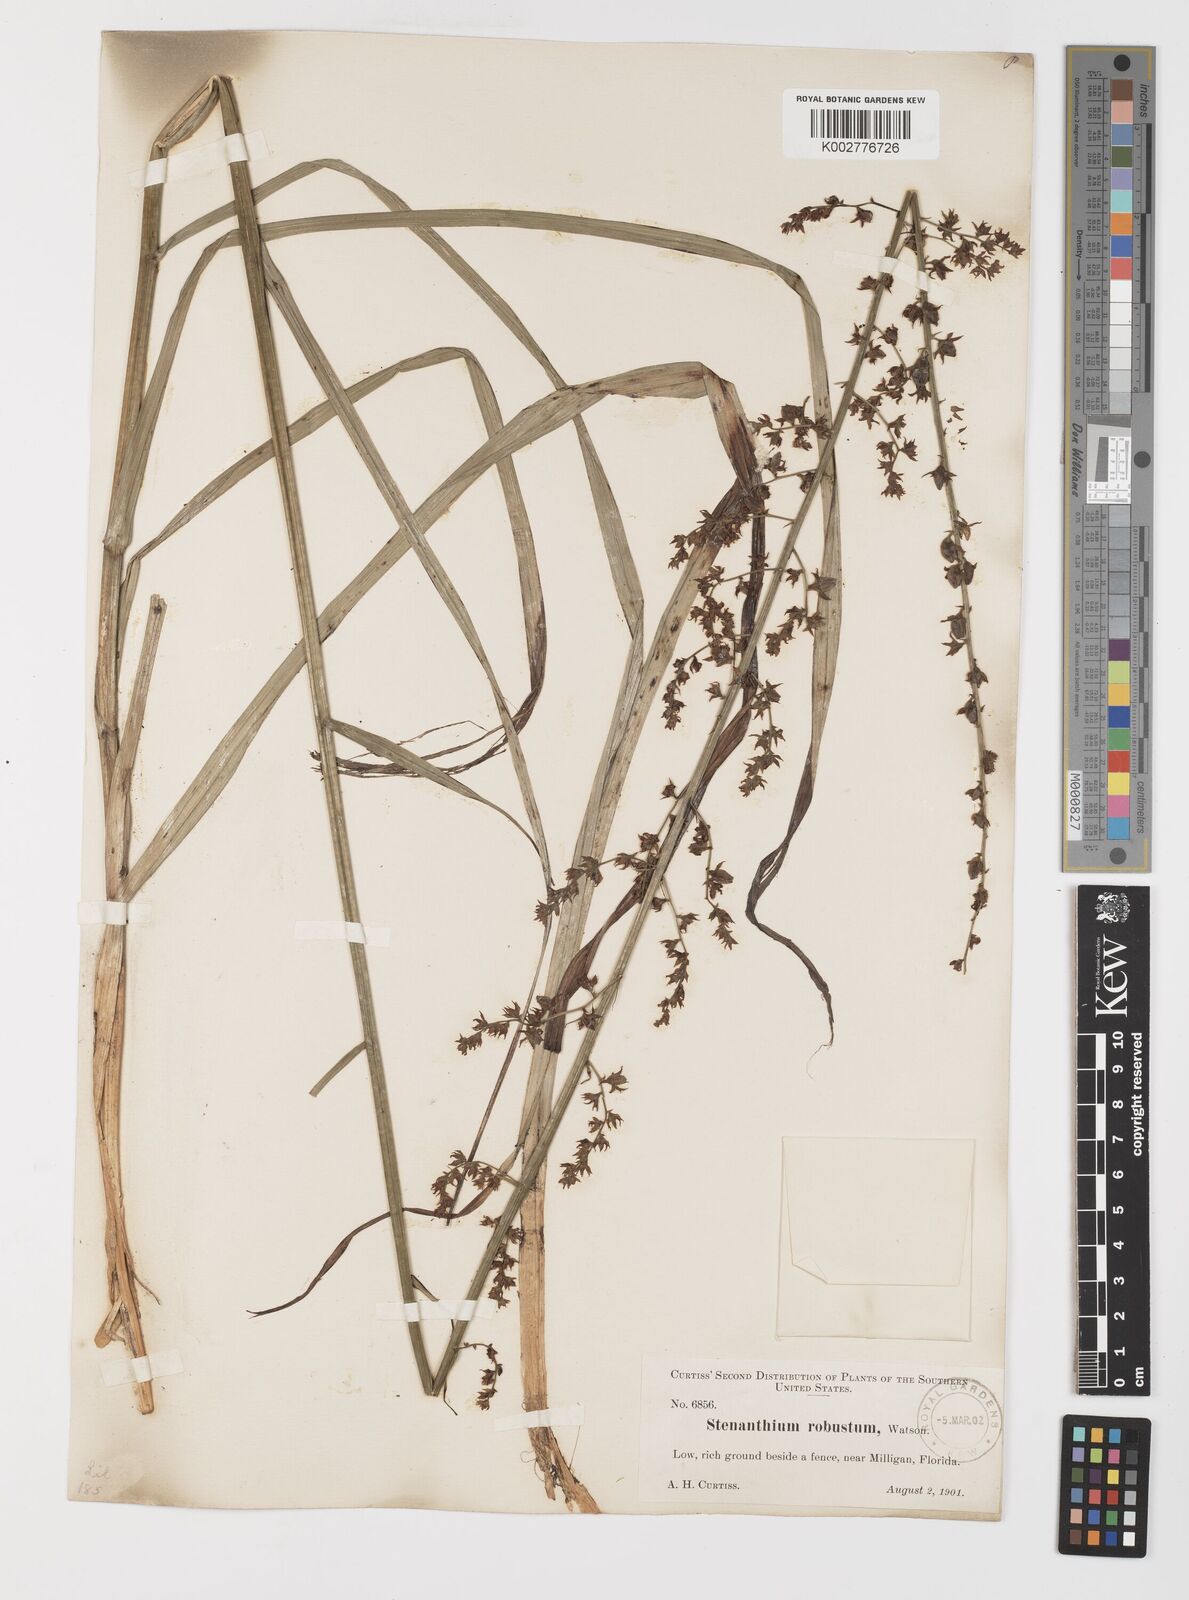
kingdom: Plantae
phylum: Tracheophyta
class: Liliopsida
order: Liliales
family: Melanthiaceae
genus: Stenanthium
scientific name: Stenanthium gramineum
